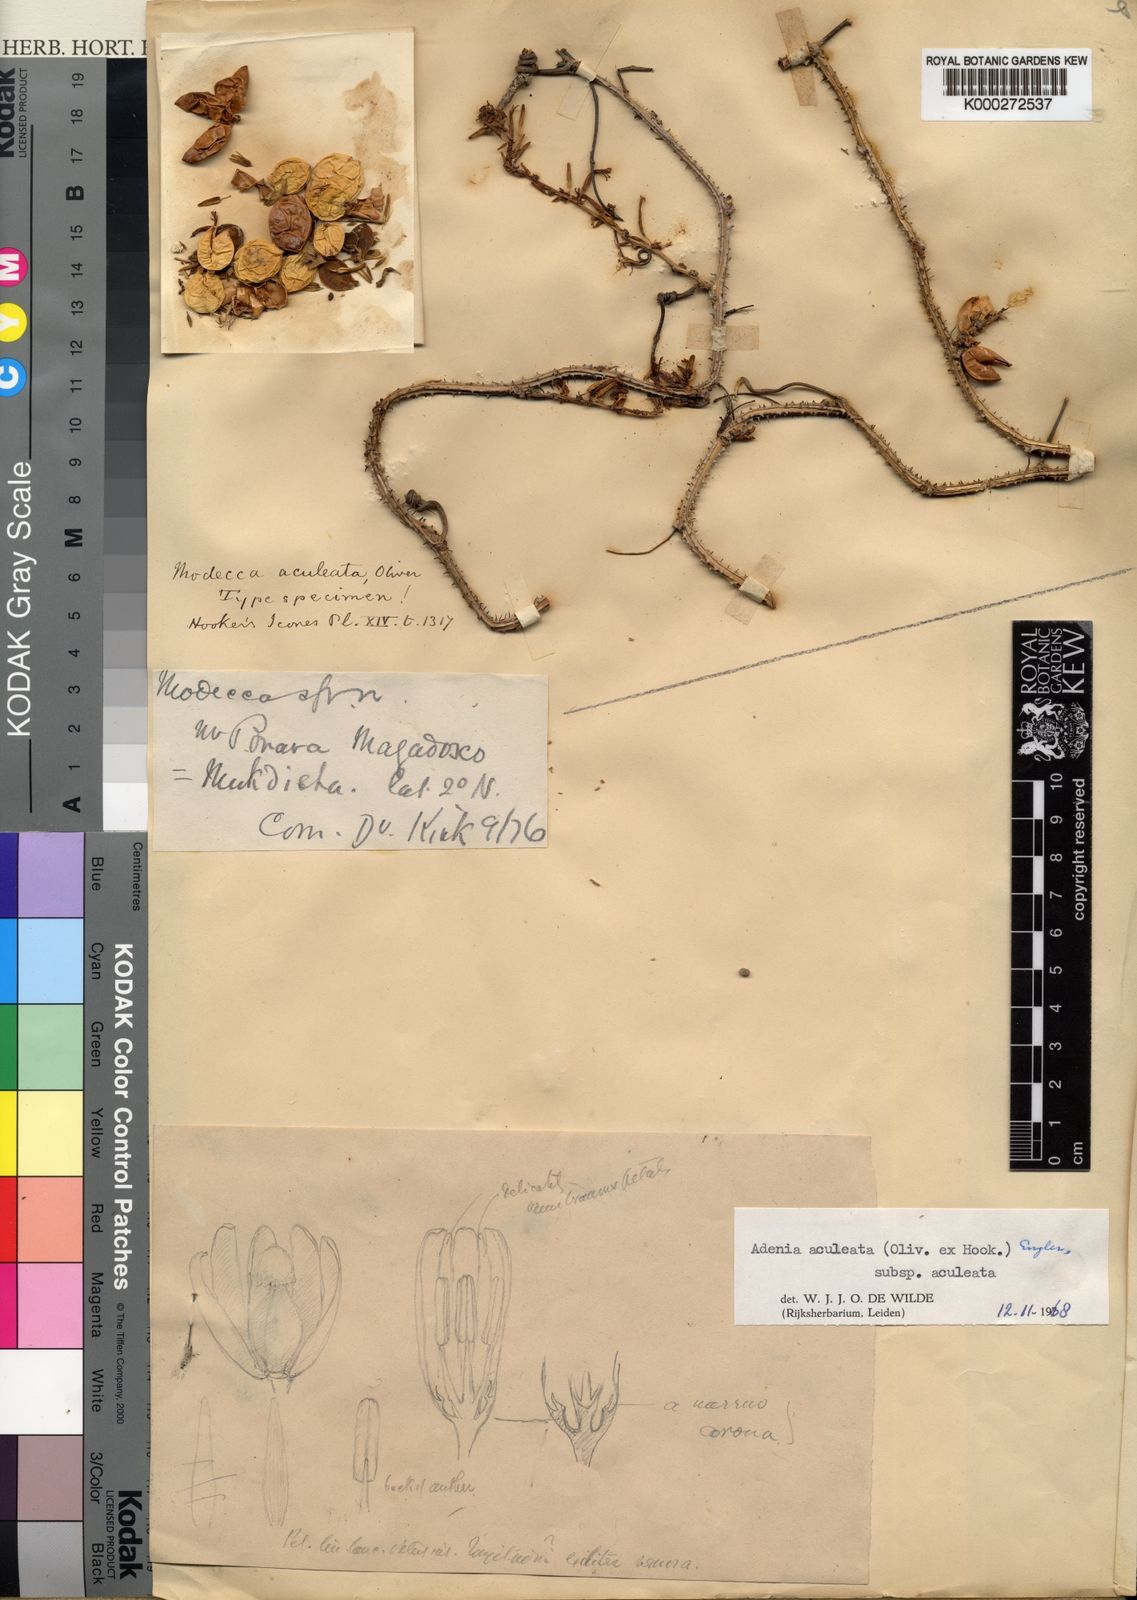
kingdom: Plantae
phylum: Tracheophyta
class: Magnoliopsida
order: Malpighiales
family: Passifloraceae
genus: Adenia
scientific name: Adenia aculeata
